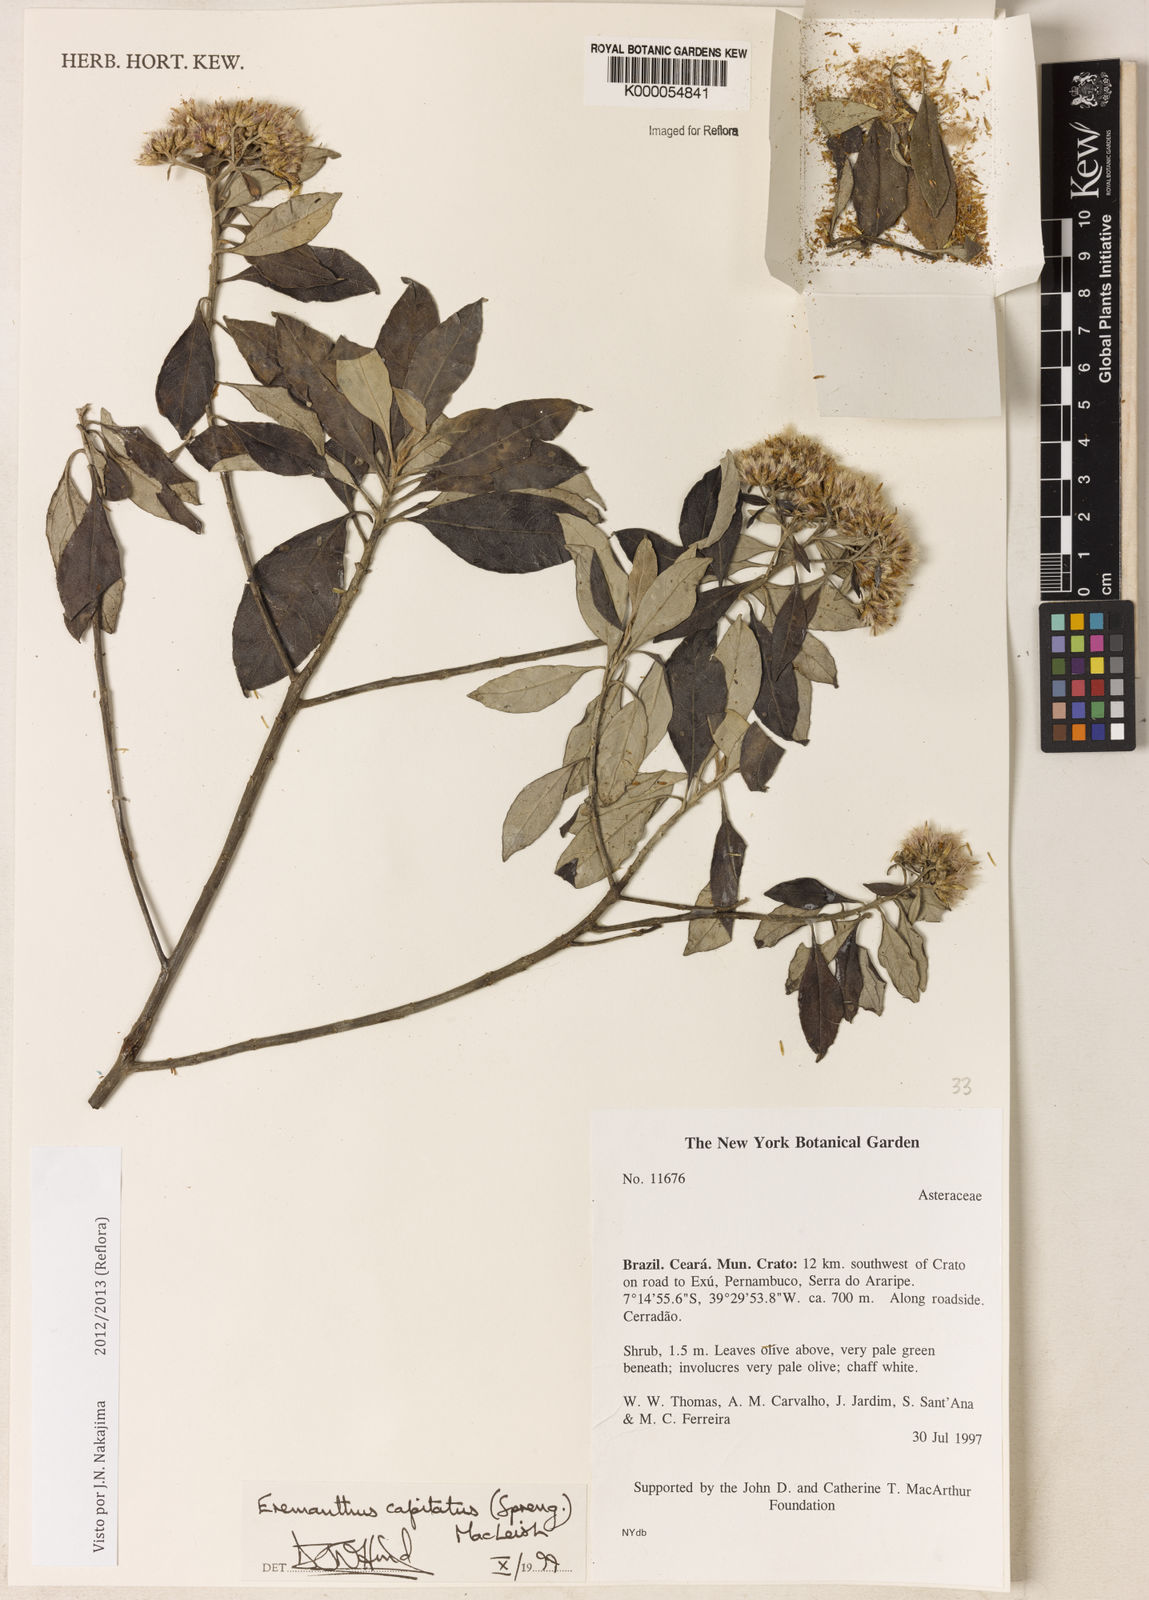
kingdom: Plantae
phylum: Tracheophyta
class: Magnoliopsida
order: Asterales
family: Asteraceae
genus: Eremanthus
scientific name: Eremanthus capitatus
